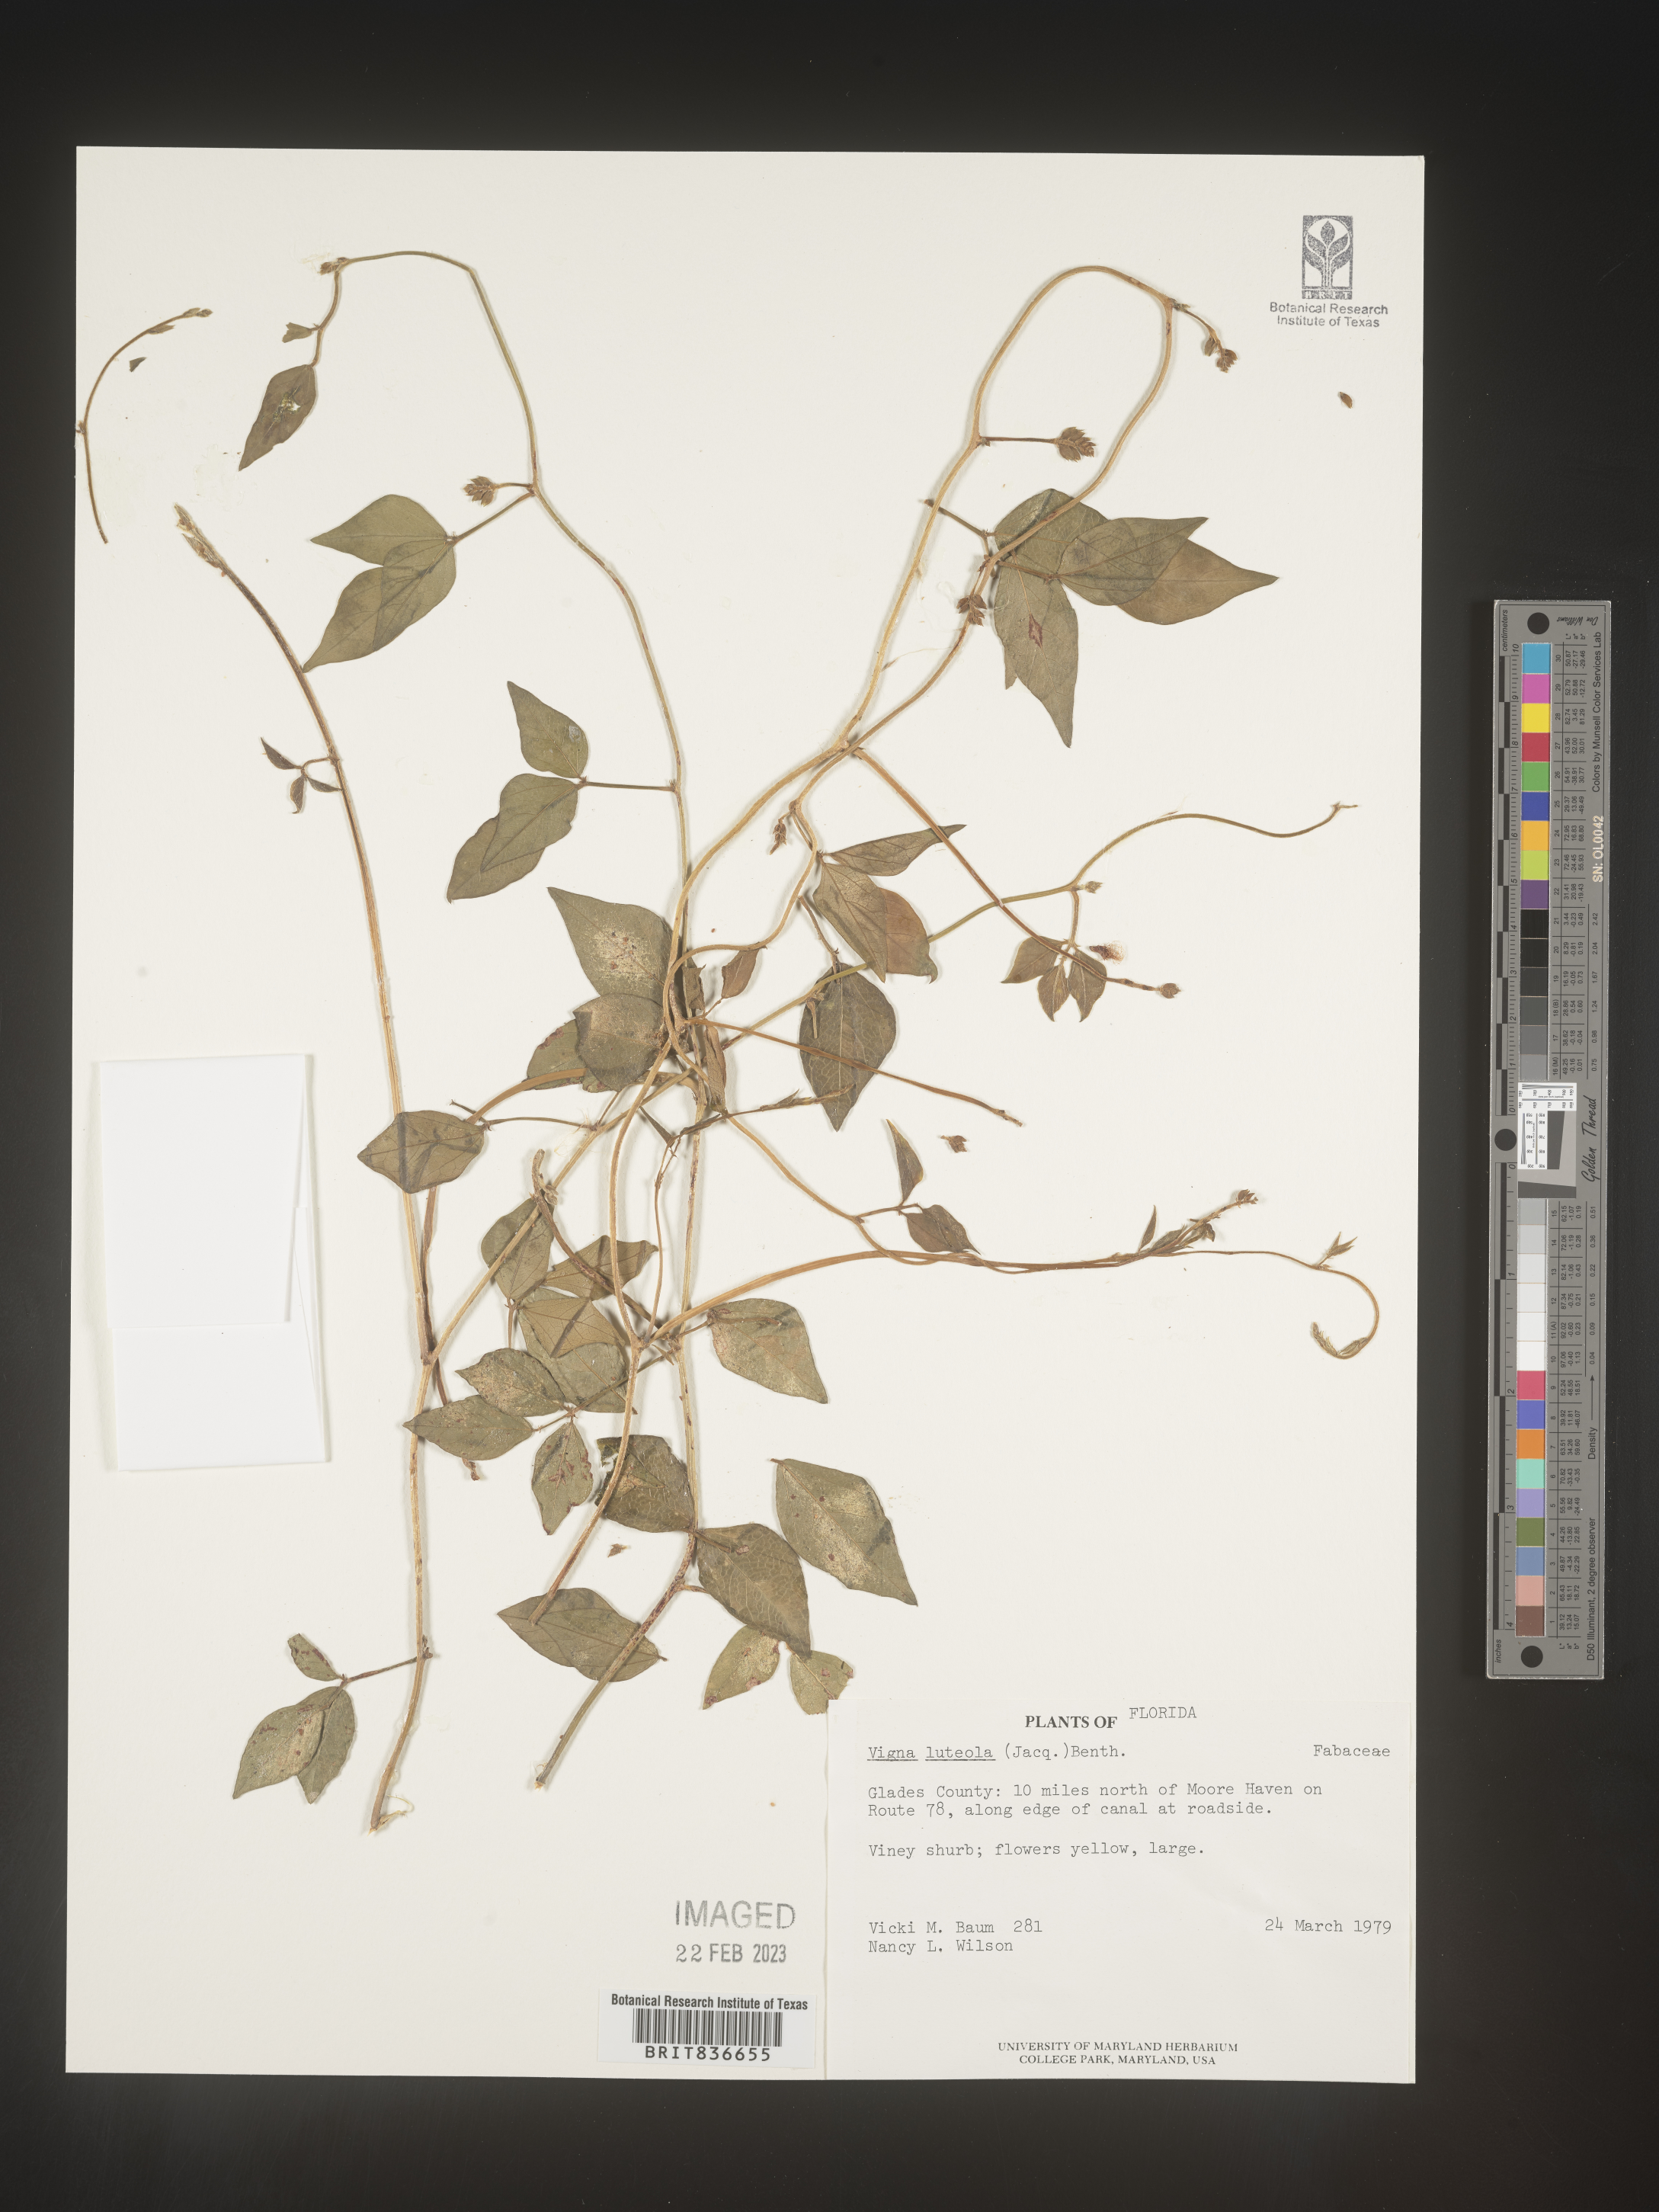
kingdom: Plantae
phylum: Tracheophyta
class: Magnoliopsida
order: Fabales
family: Fabaceae
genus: Vigna
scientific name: Vigna luteola
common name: Hairypod cowpea
